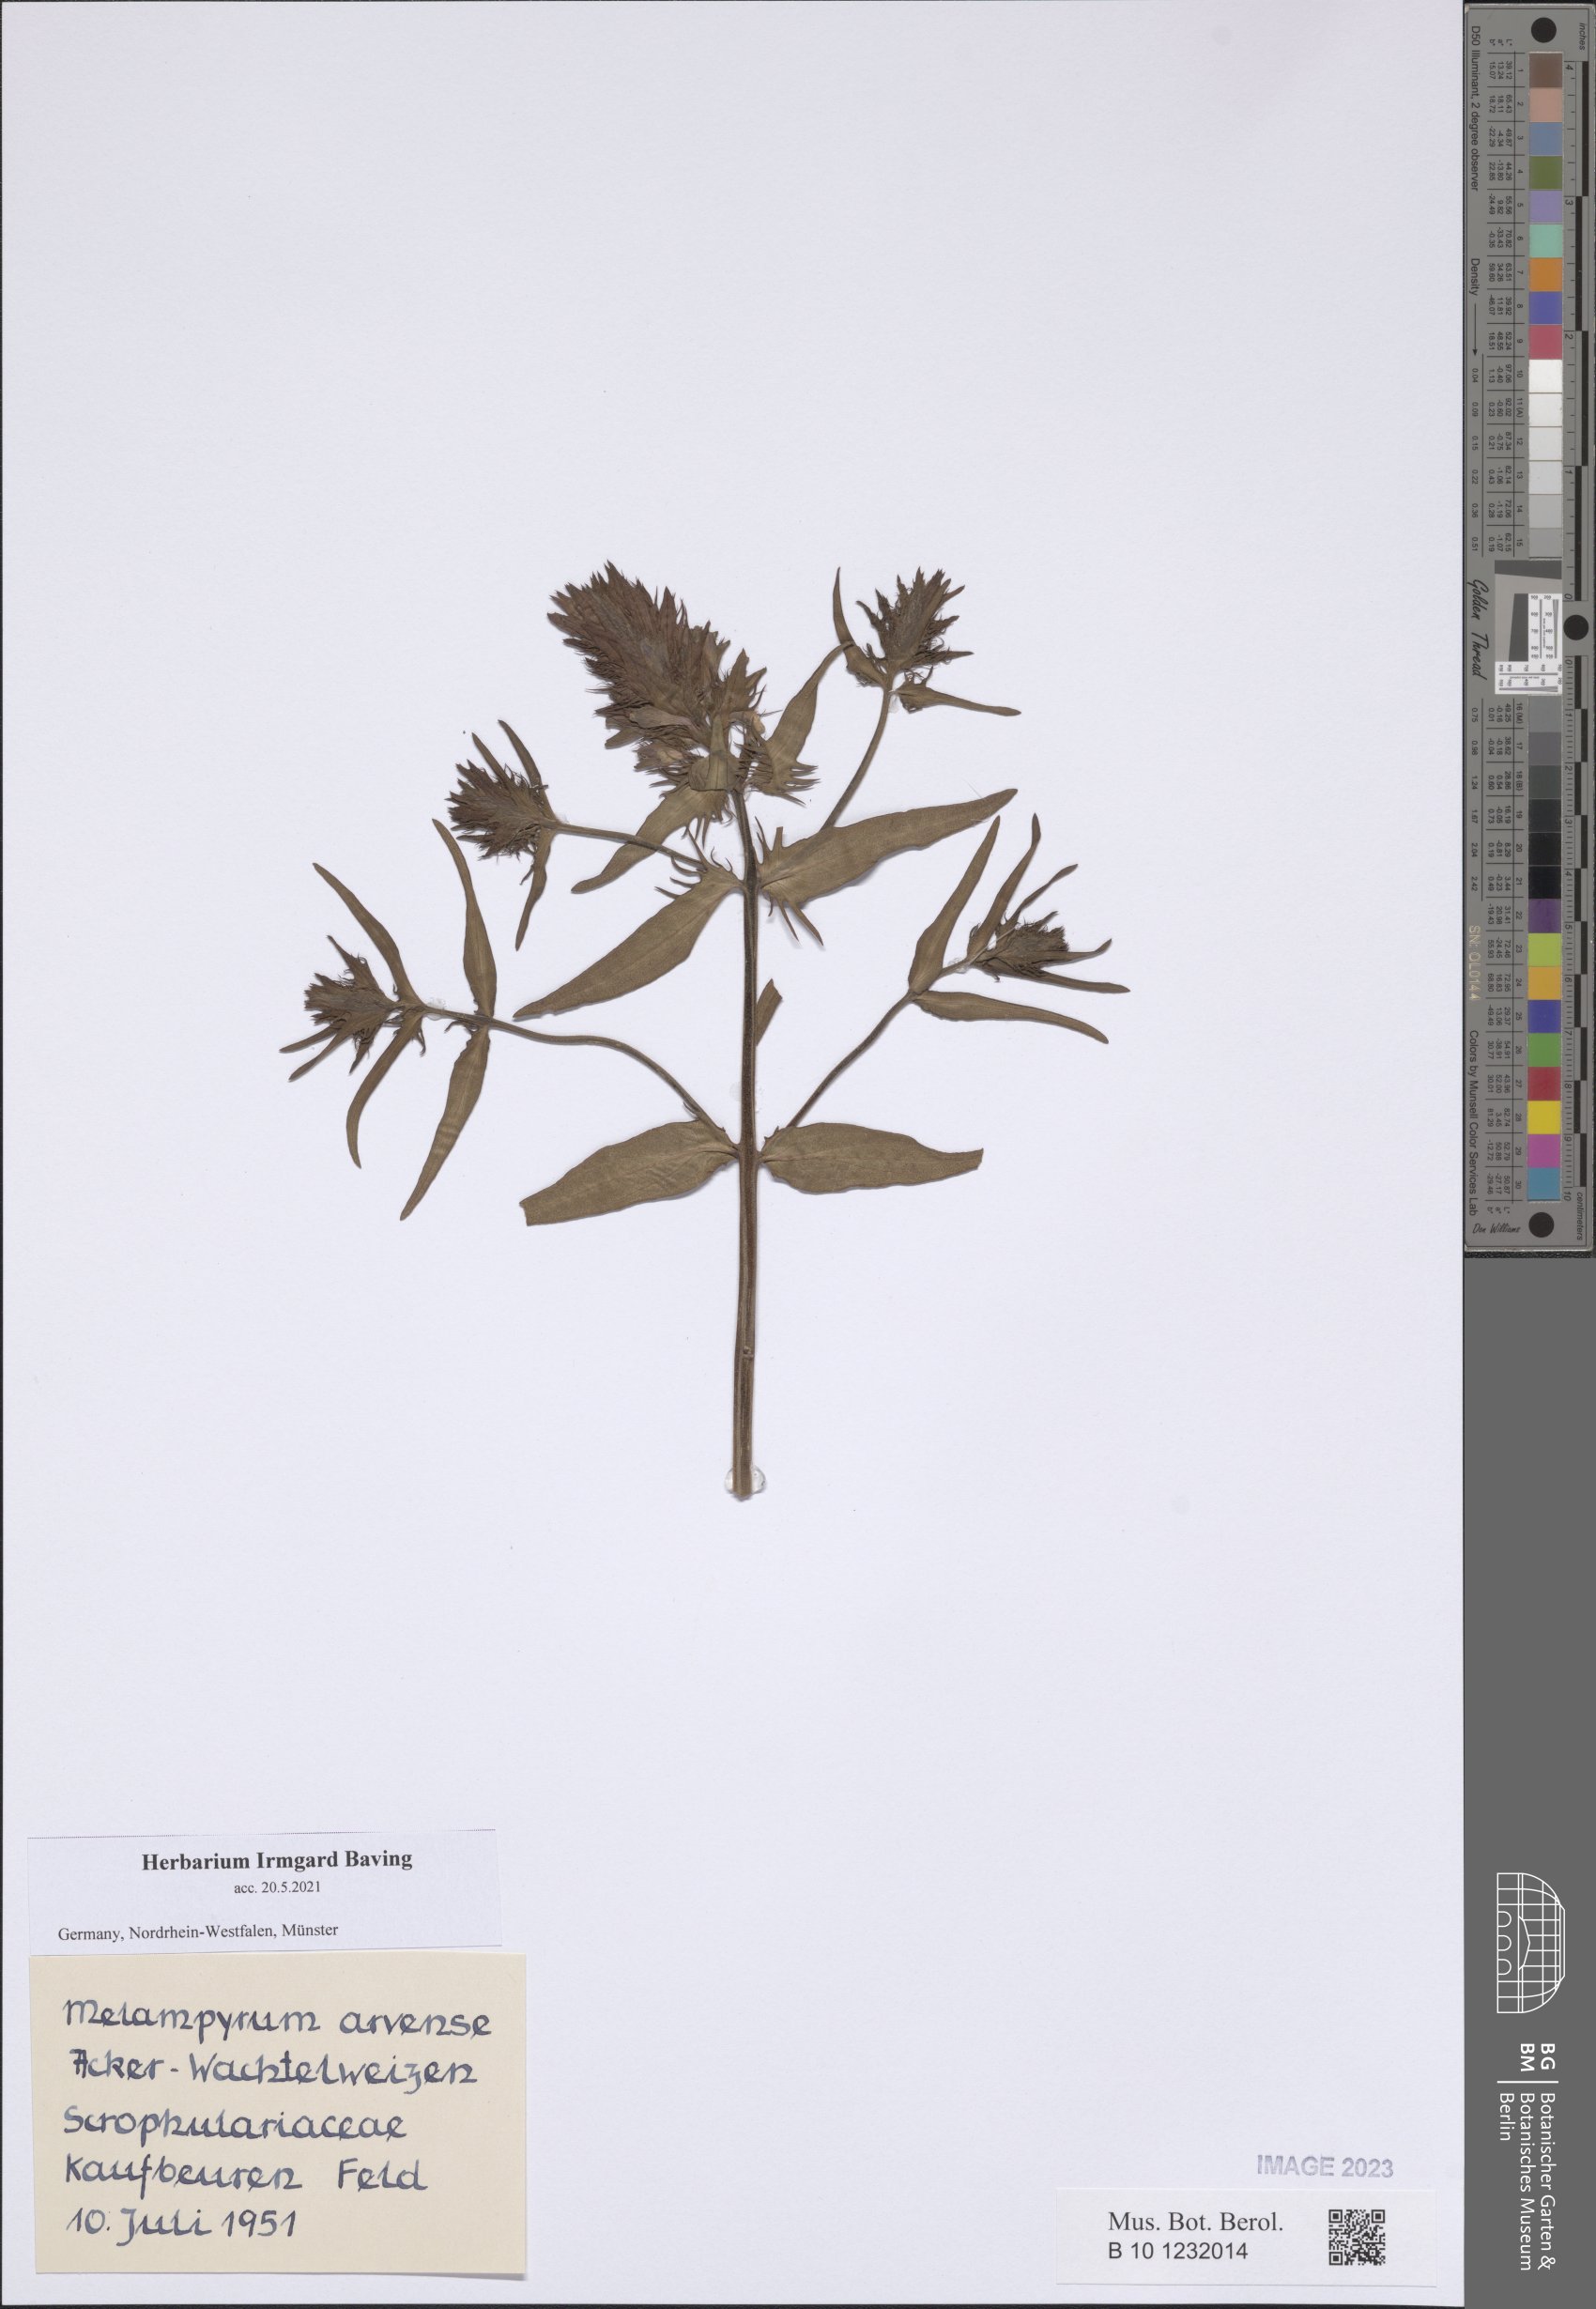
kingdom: Plantae
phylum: Tracheophyta
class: Magnoliopsida
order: Lamiales
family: Orobanchaceae
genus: Melampyrum
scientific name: Melampyrum arvense
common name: Field cow-wheat
